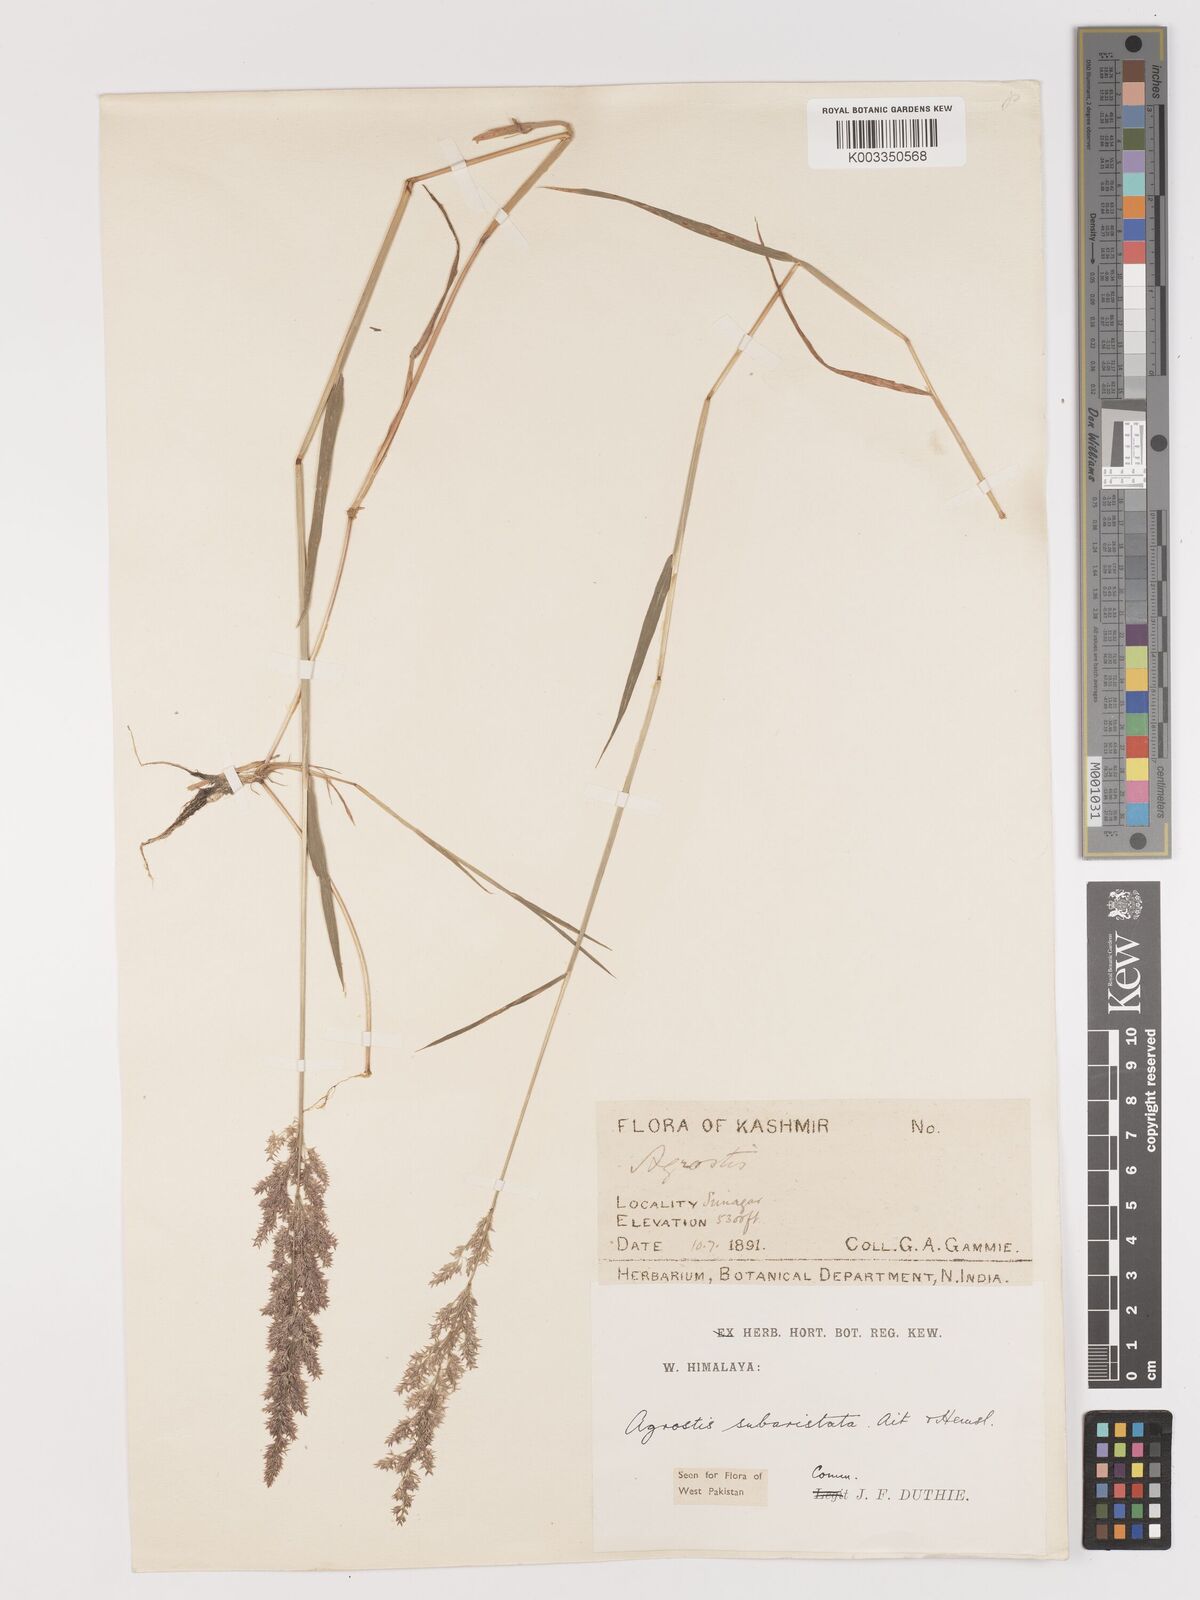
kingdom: Plantae
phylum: Tracheophyta
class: Liliopsida
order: Poales
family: Poaceae
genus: Agropogon
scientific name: Agropogon lutosus
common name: Coast agropogon
